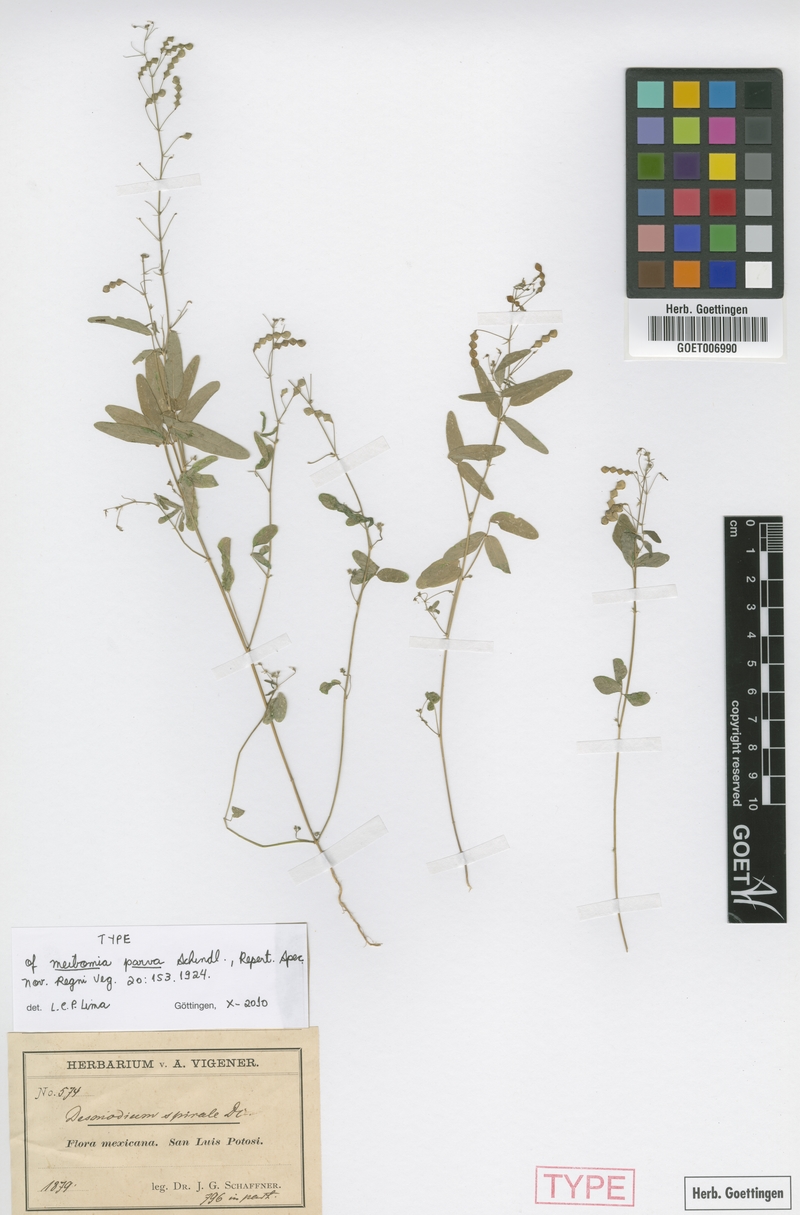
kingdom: Plantae
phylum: Tracheophyta
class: Magnoliopsida
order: Fabales
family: Fabaceae
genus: Desmodium
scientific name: Desmodium procumbens
